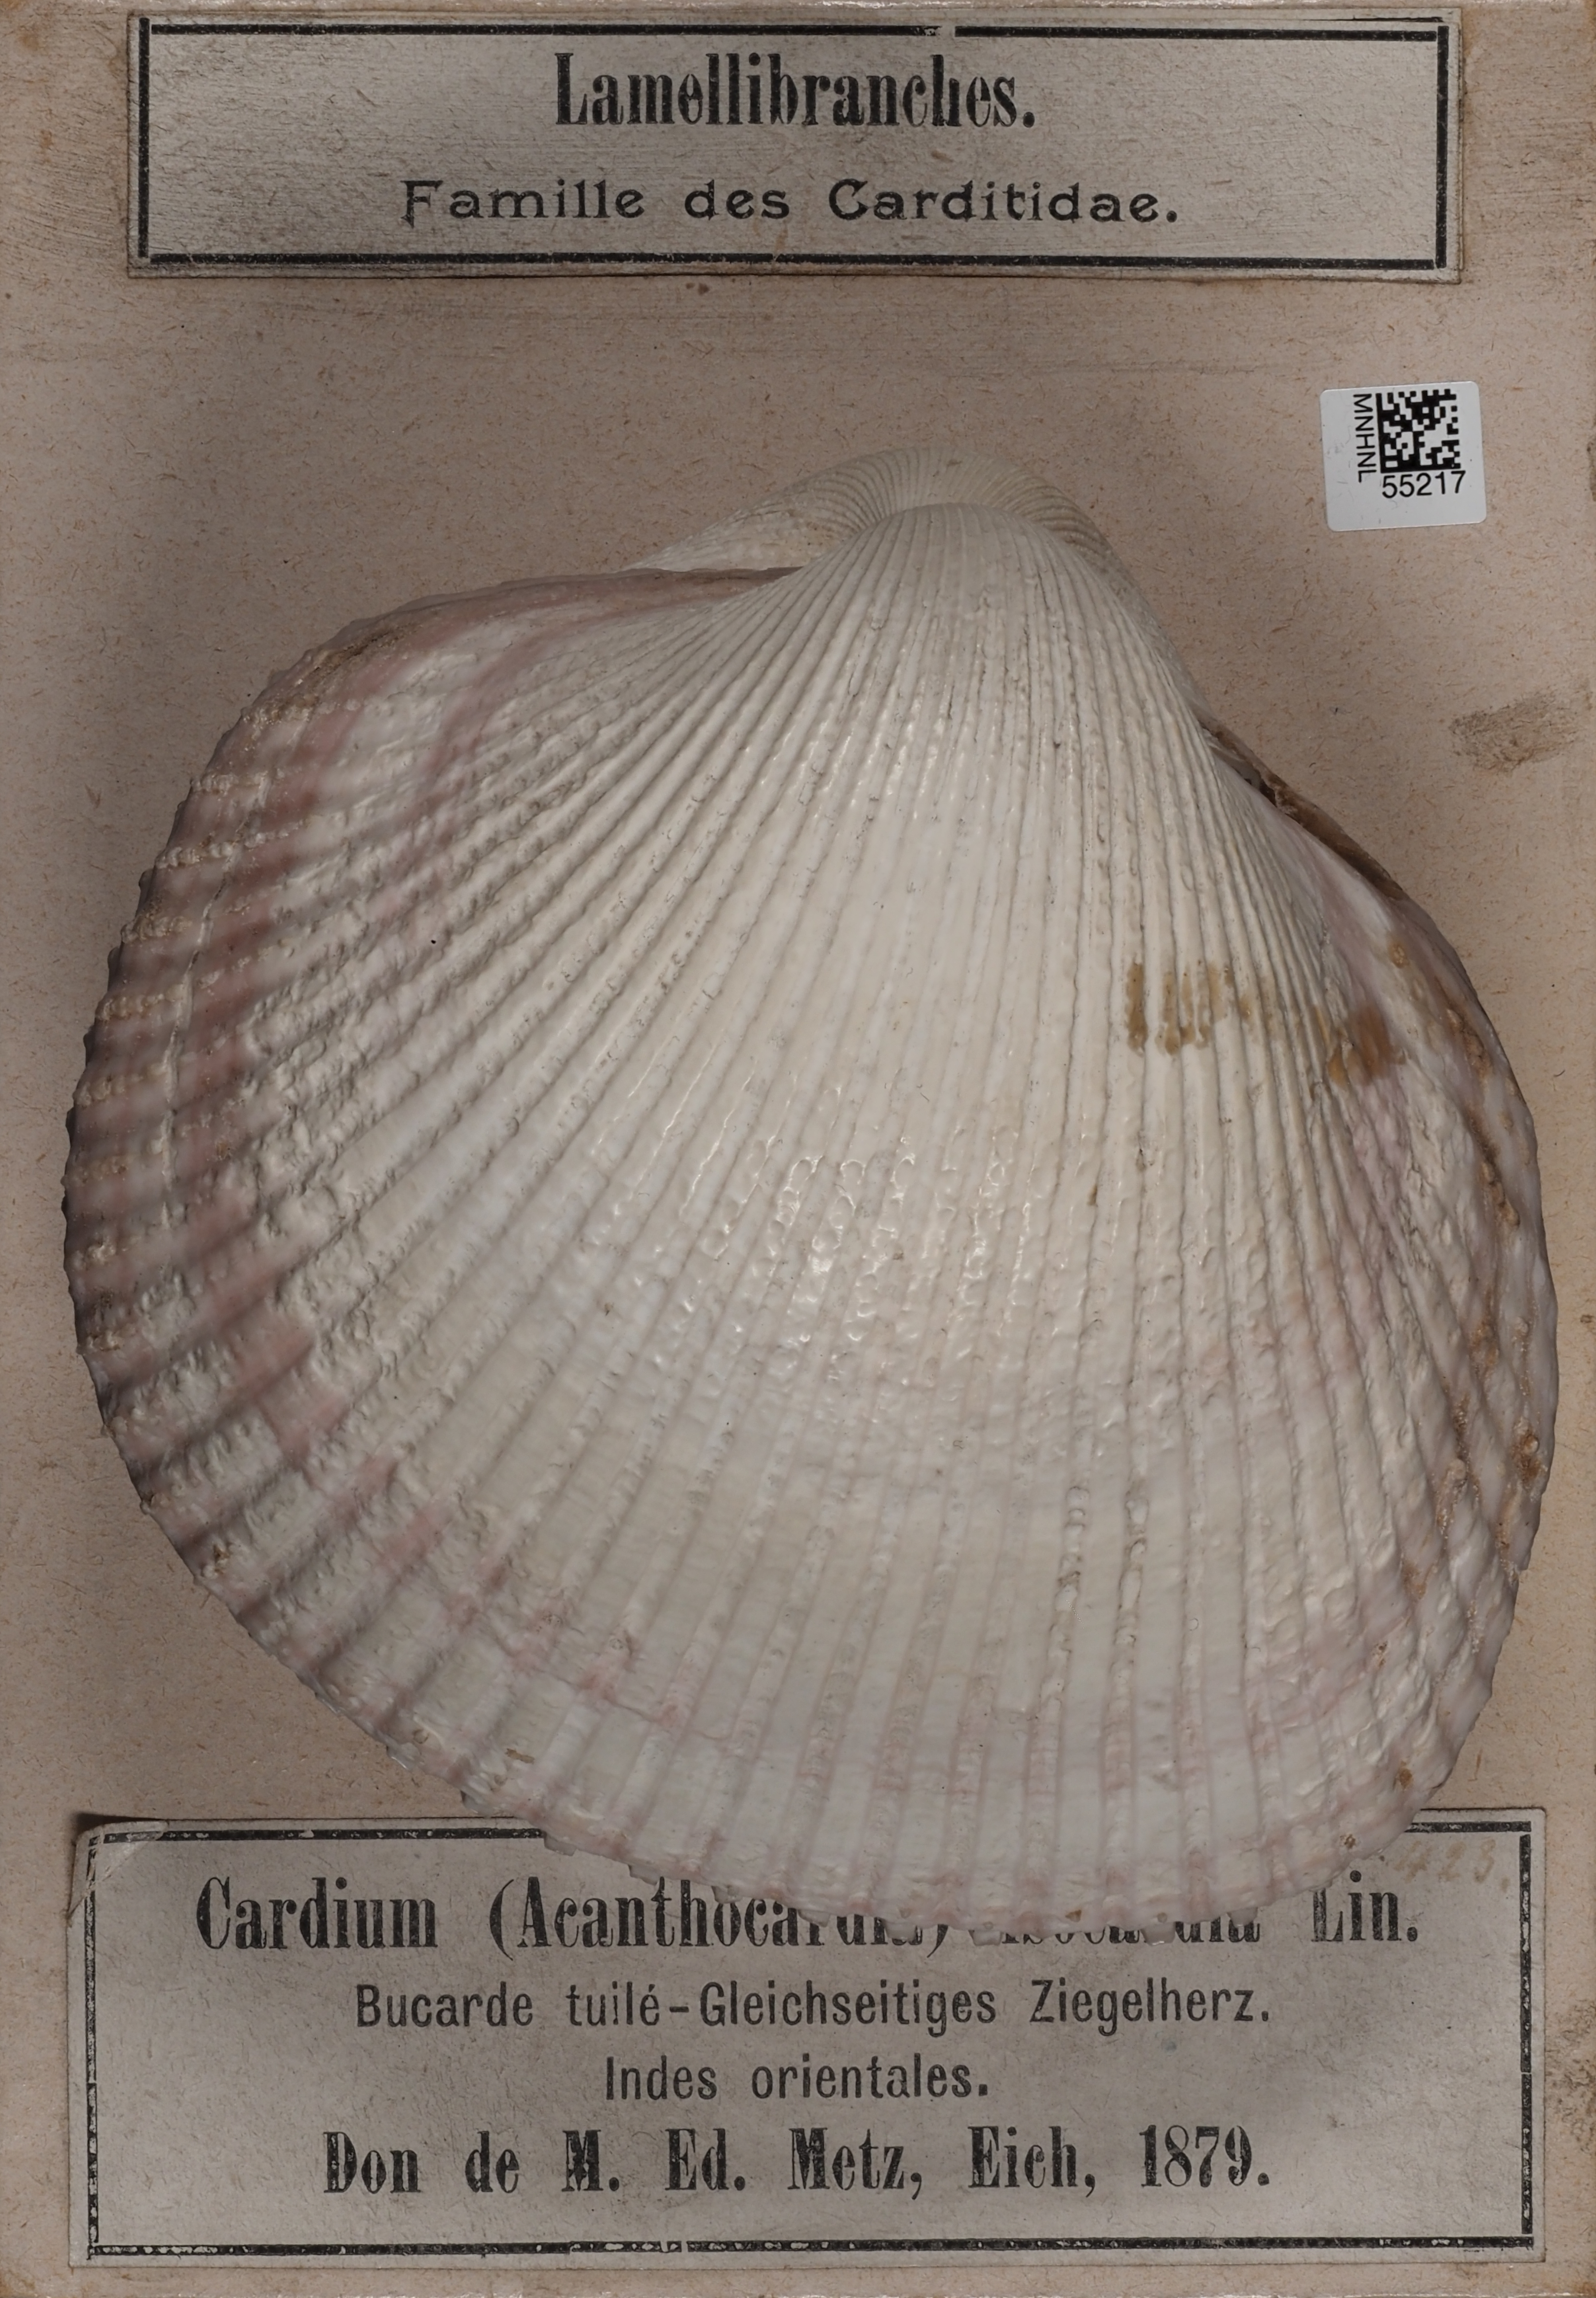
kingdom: Animalia
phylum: Mollusca
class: Bivalvia
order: Cardiida
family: Cardiidae
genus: Trachycardium
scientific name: Trachycardium isocardia
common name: Even pricklycockle
